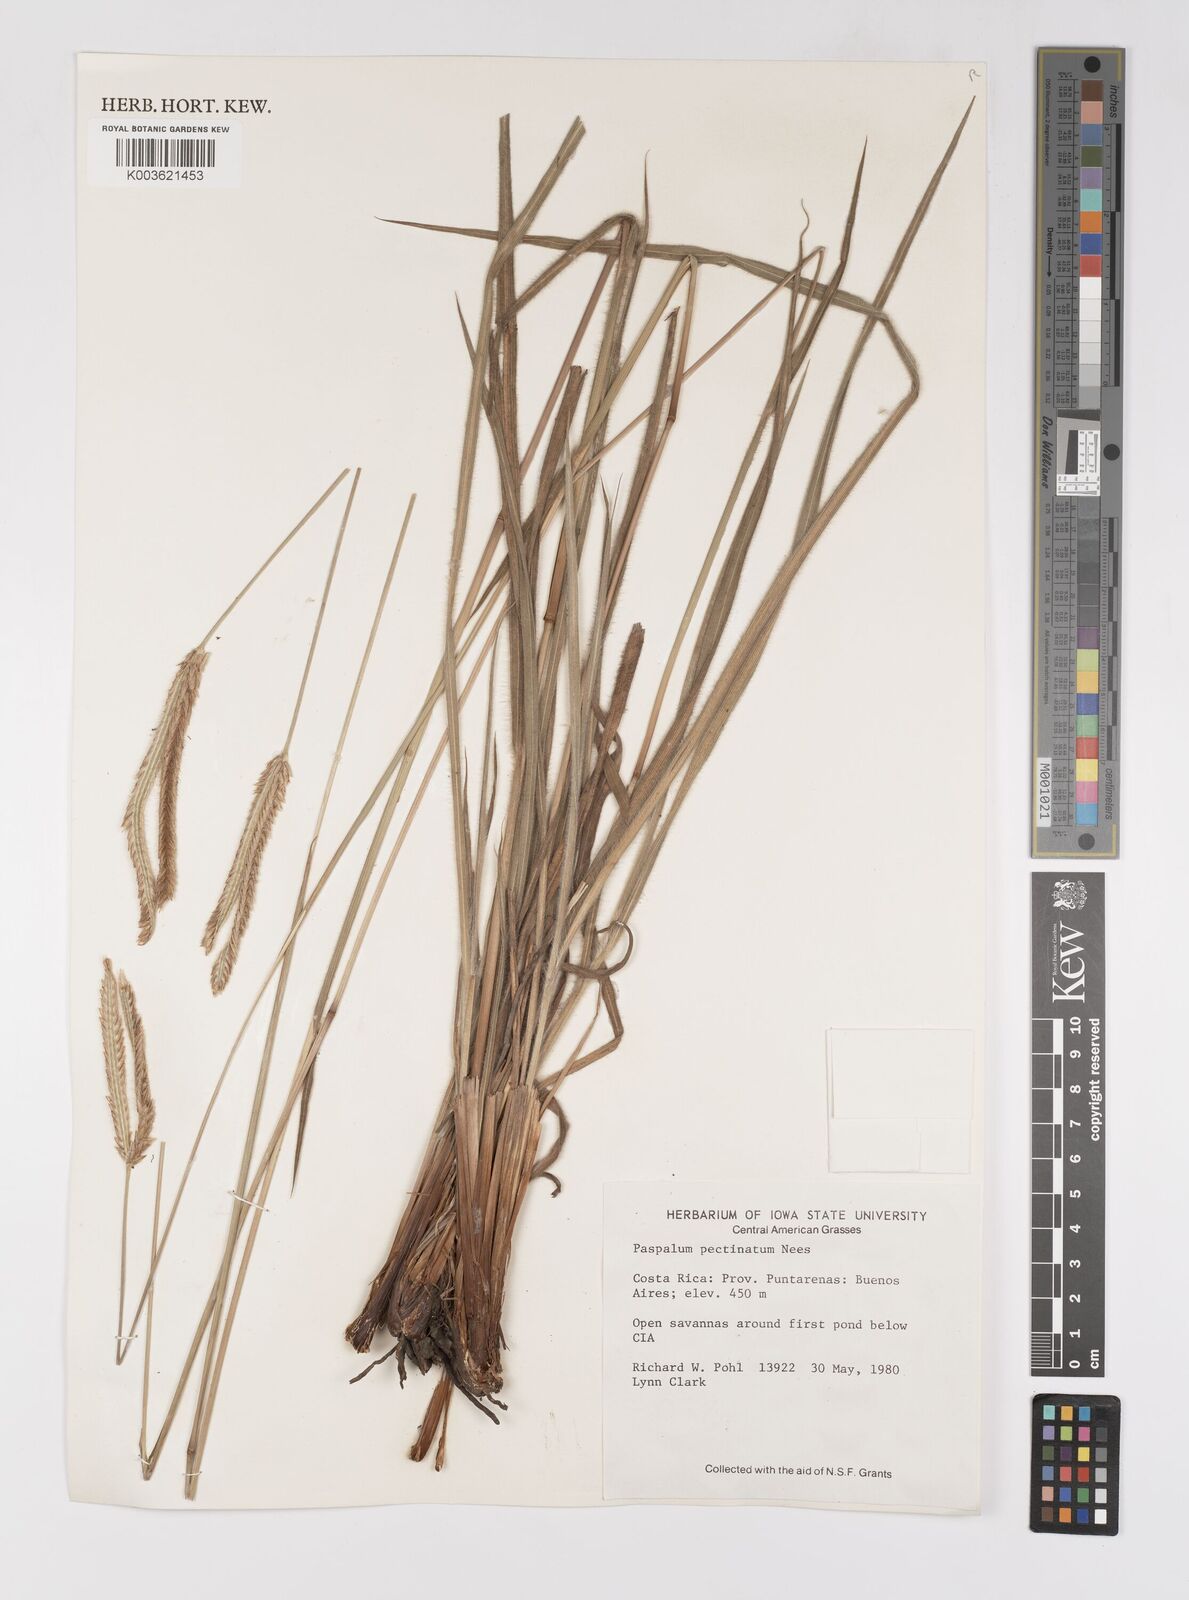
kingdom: Plantae
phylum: Tracheophyta
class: Liliopsida
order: Poales
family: Poaceae
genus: Paspalum
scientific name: Paspalum pectinatum
